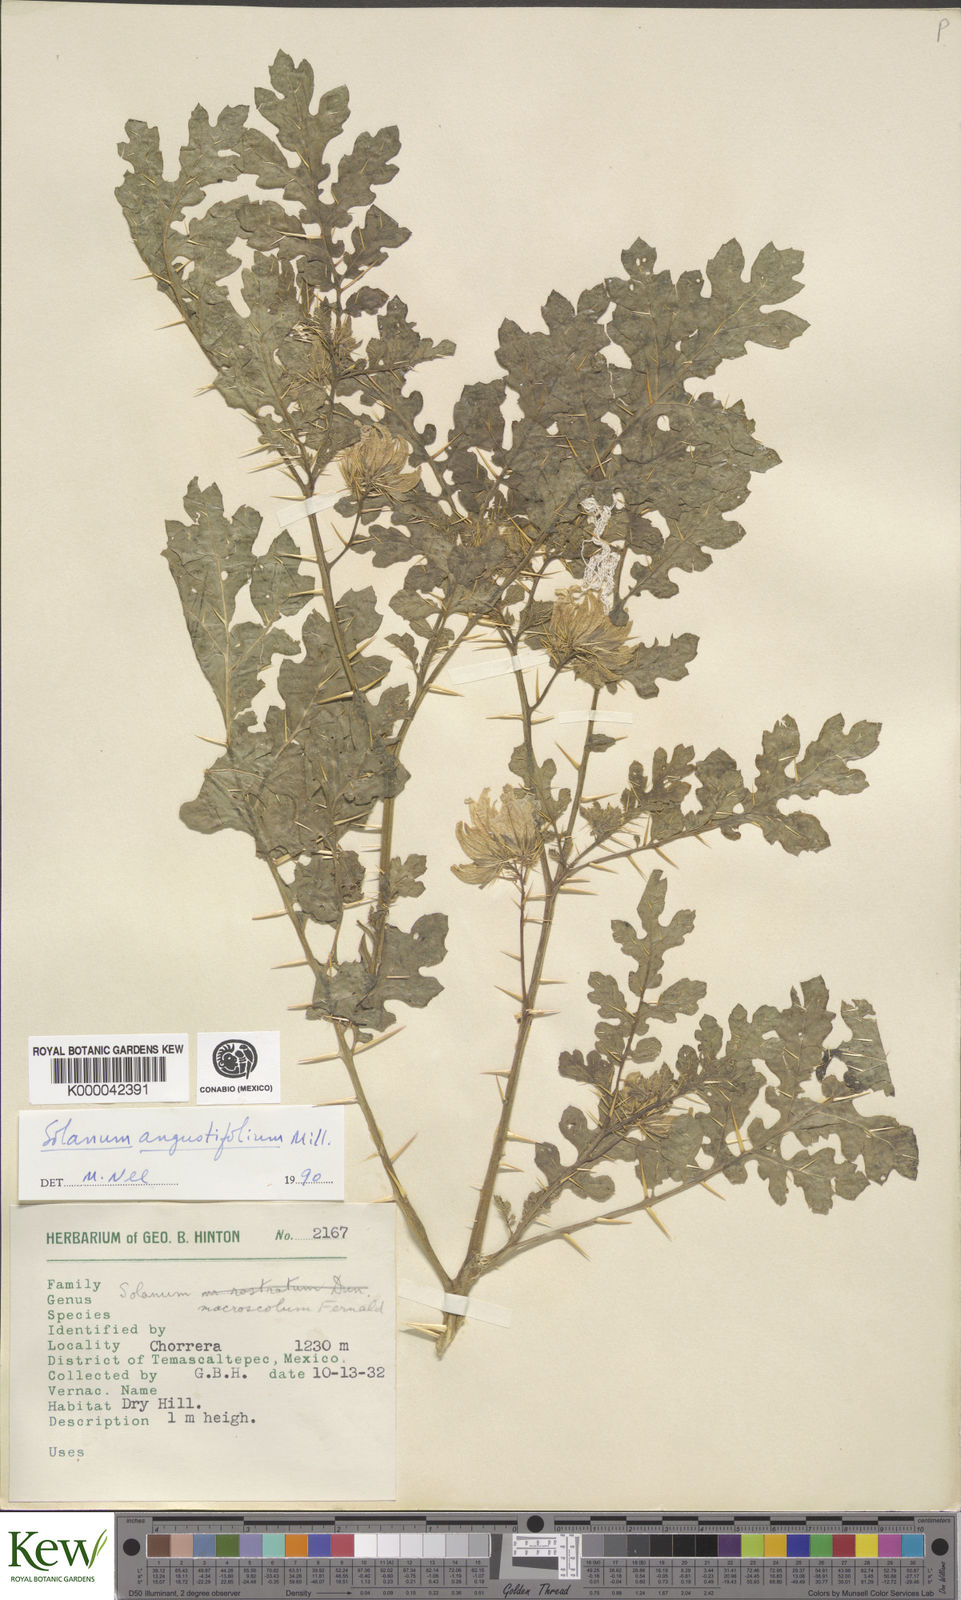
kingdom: Plantae
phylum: Tracheophyta
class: Magnoliopsida
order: Solanales
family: Solanaceae
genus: Solanum
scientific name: Solanum angustifolium
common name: Buffalobur nightshade
